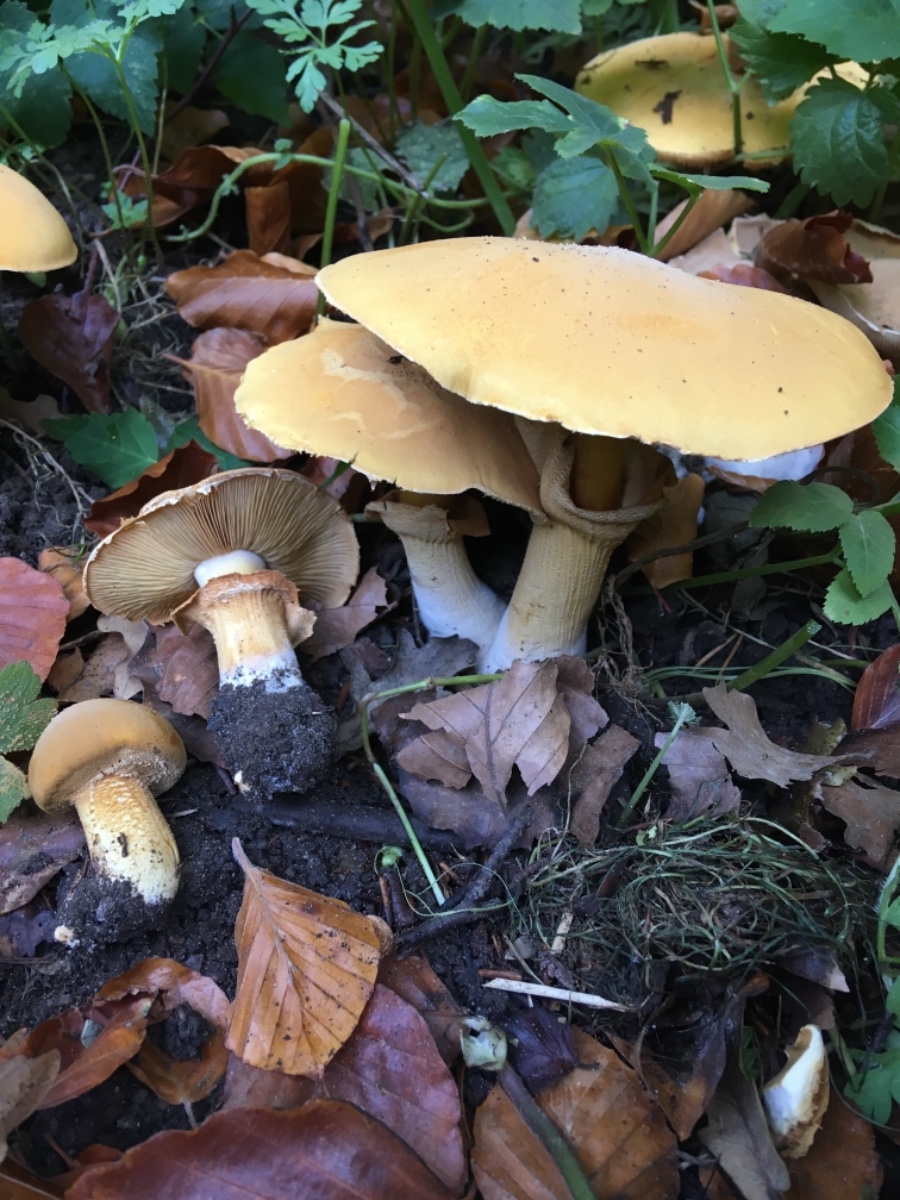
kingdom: Fungi
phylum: Basidiomycota
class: Agaricomycetes
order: Agaricales
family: Tricholomataceae
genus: Phaeolepiota
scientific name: Phaeolepiota aurea
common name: gyldenhat
